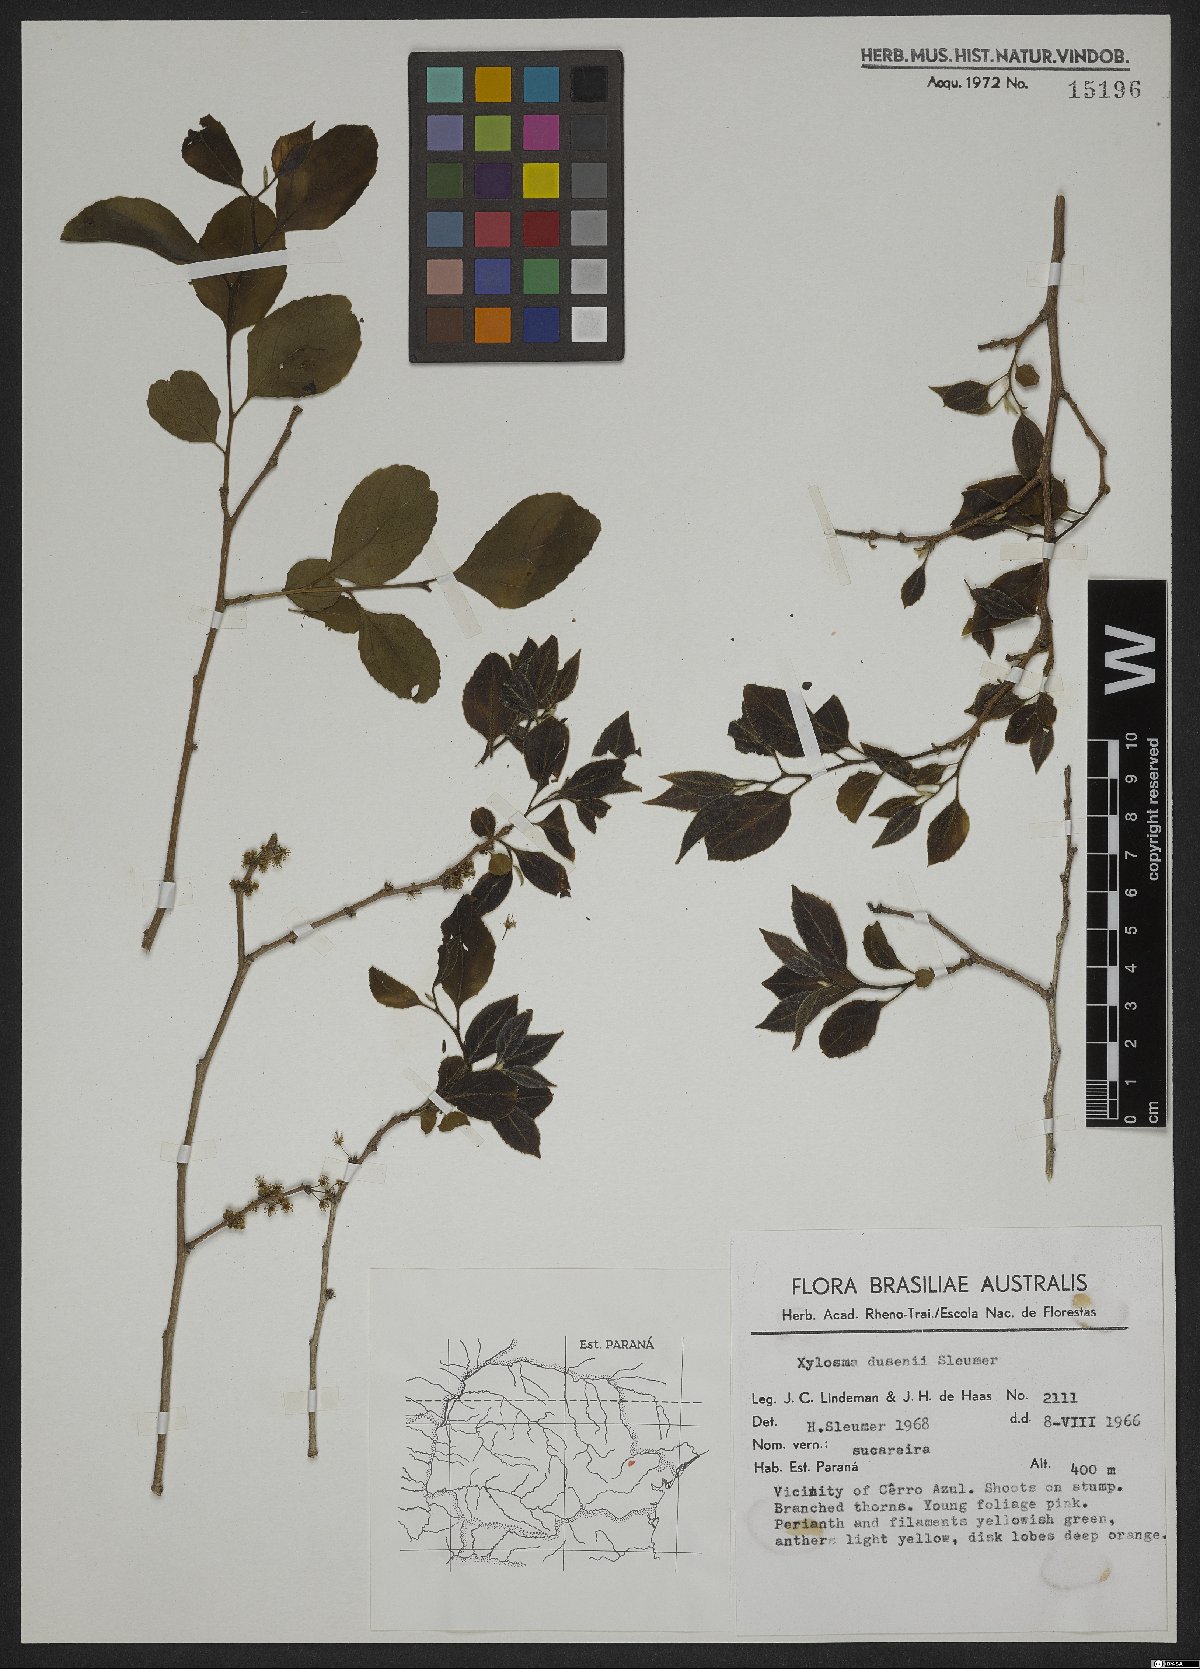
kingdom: Plantae
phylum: Tracheophyta
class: Magnoliopsida
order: Malpighiales
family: Salicaceae
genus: Xylosma
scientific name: Xylosma
